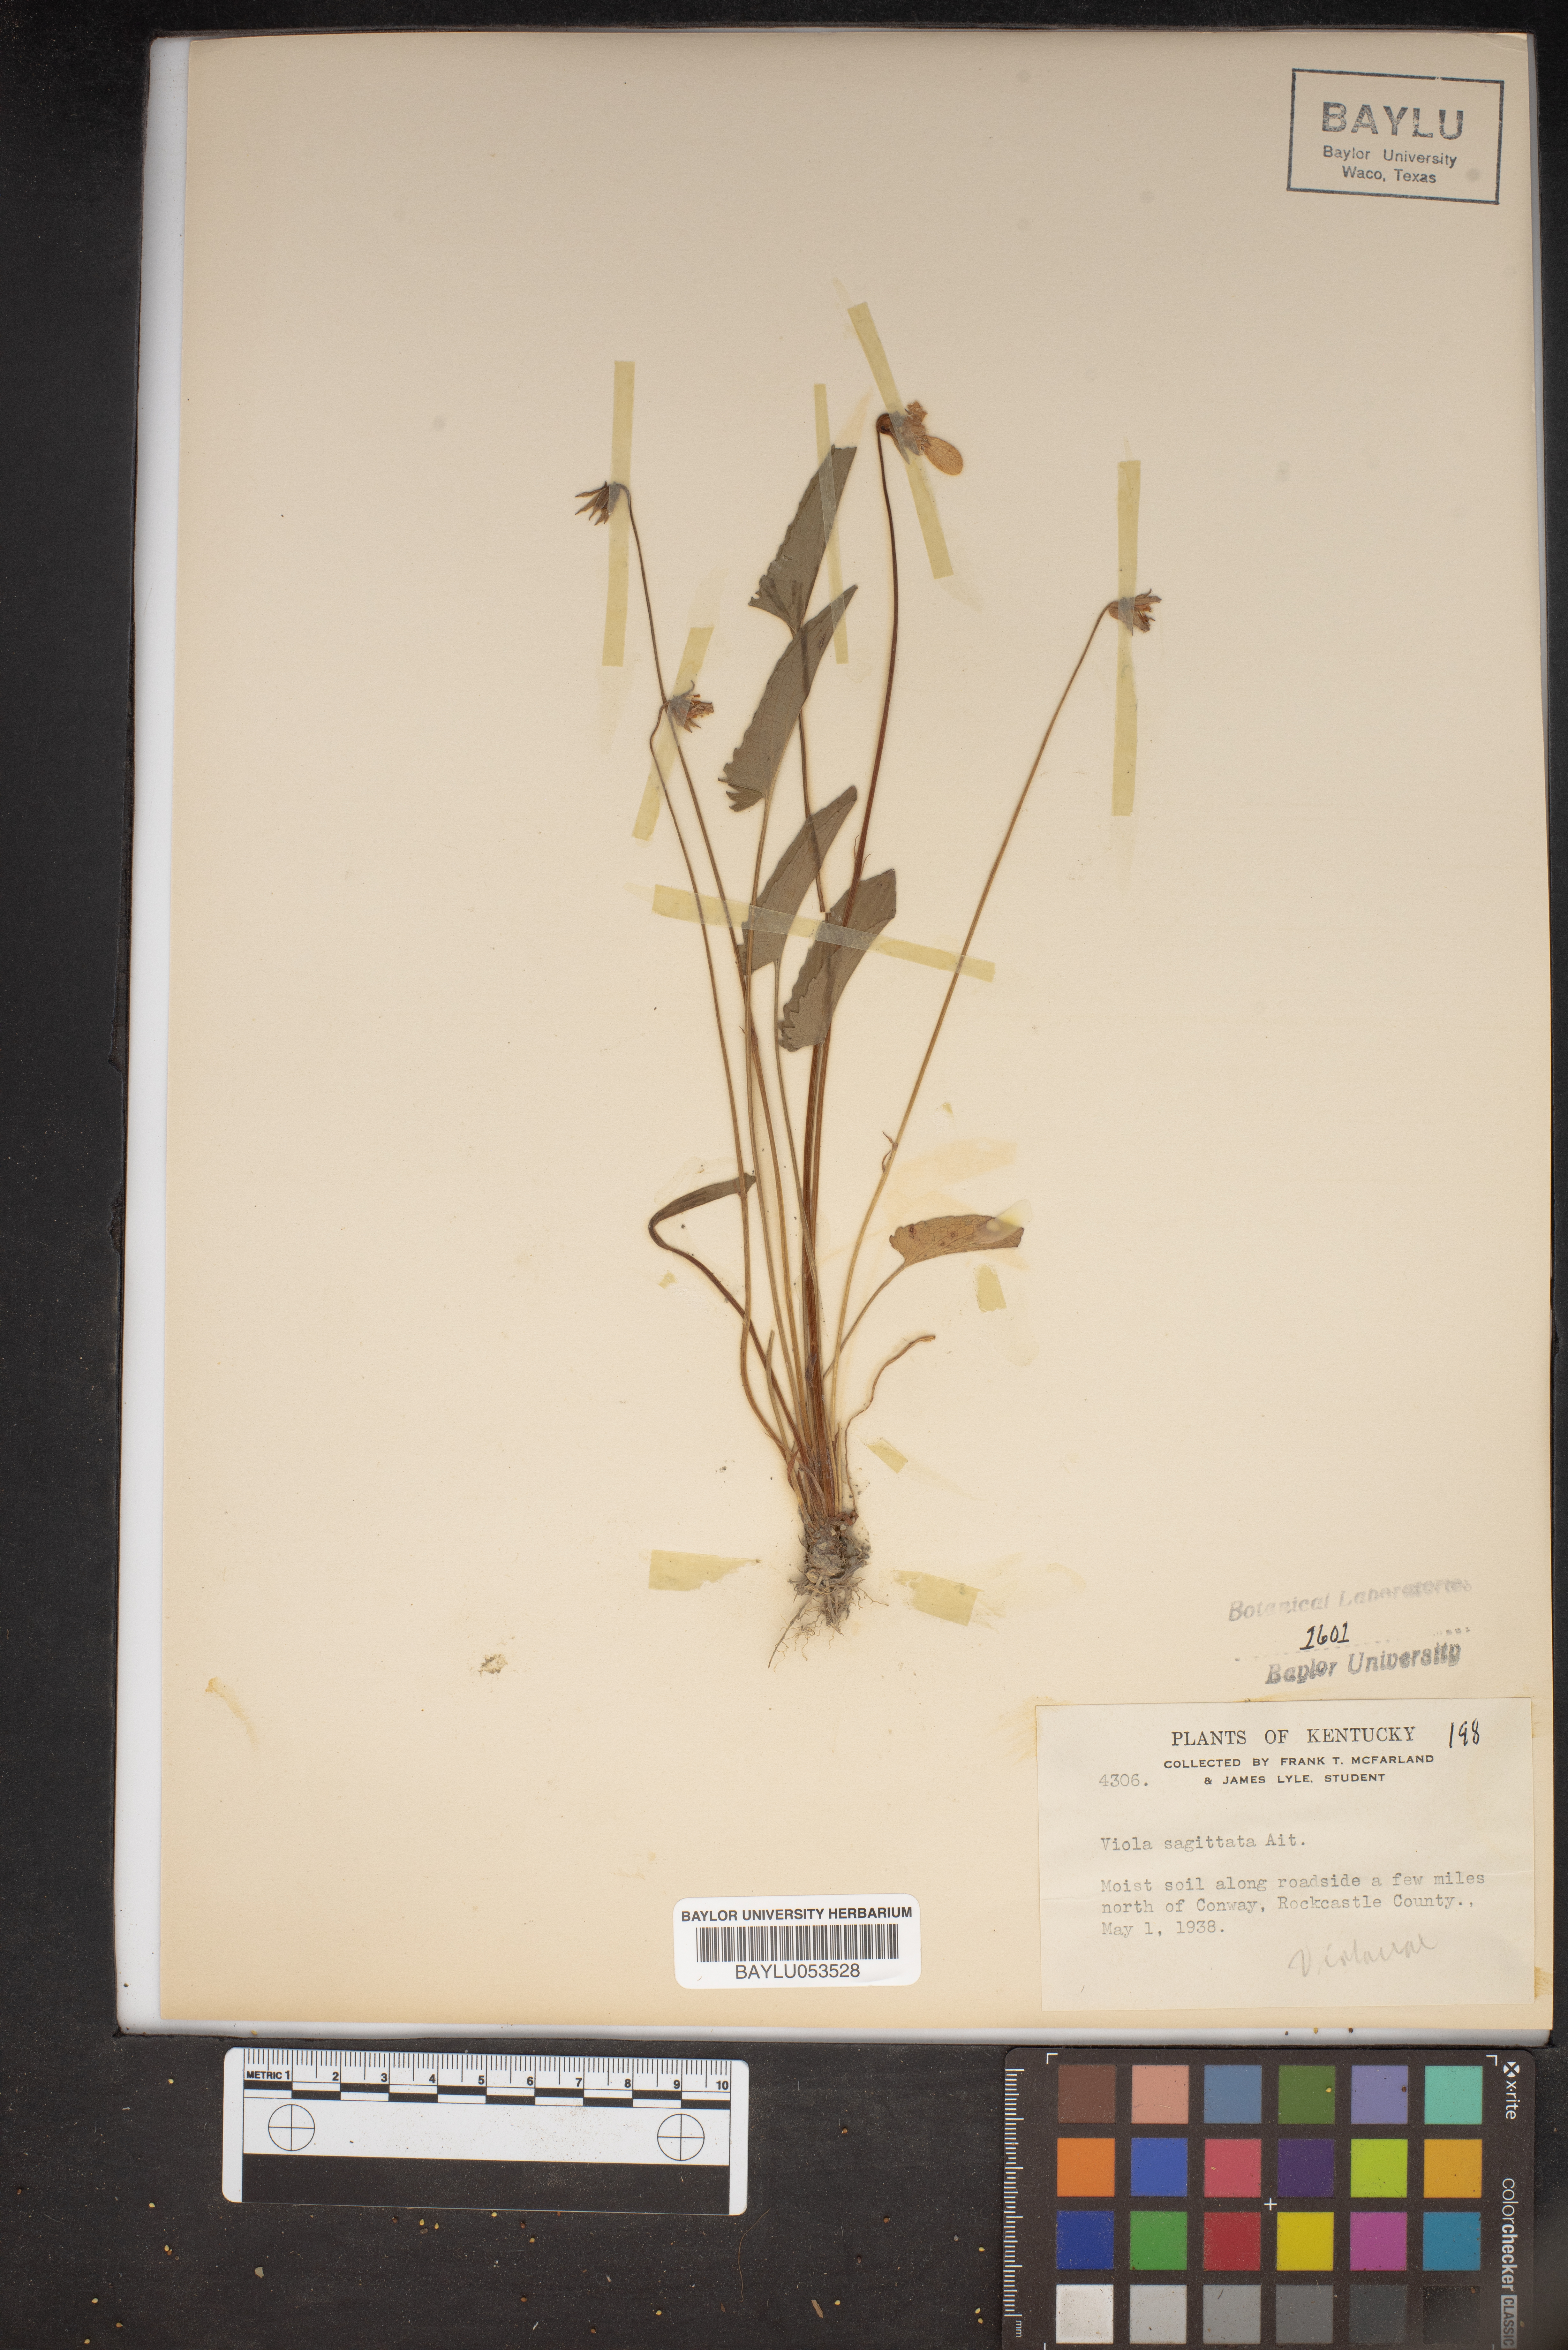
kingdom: Plantae
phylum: Tracheophyta
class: Magnoliopsida
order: Malpighiales
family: Violaceae
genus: Viola
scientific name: Viola sagittata
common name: Arrowhead violet
